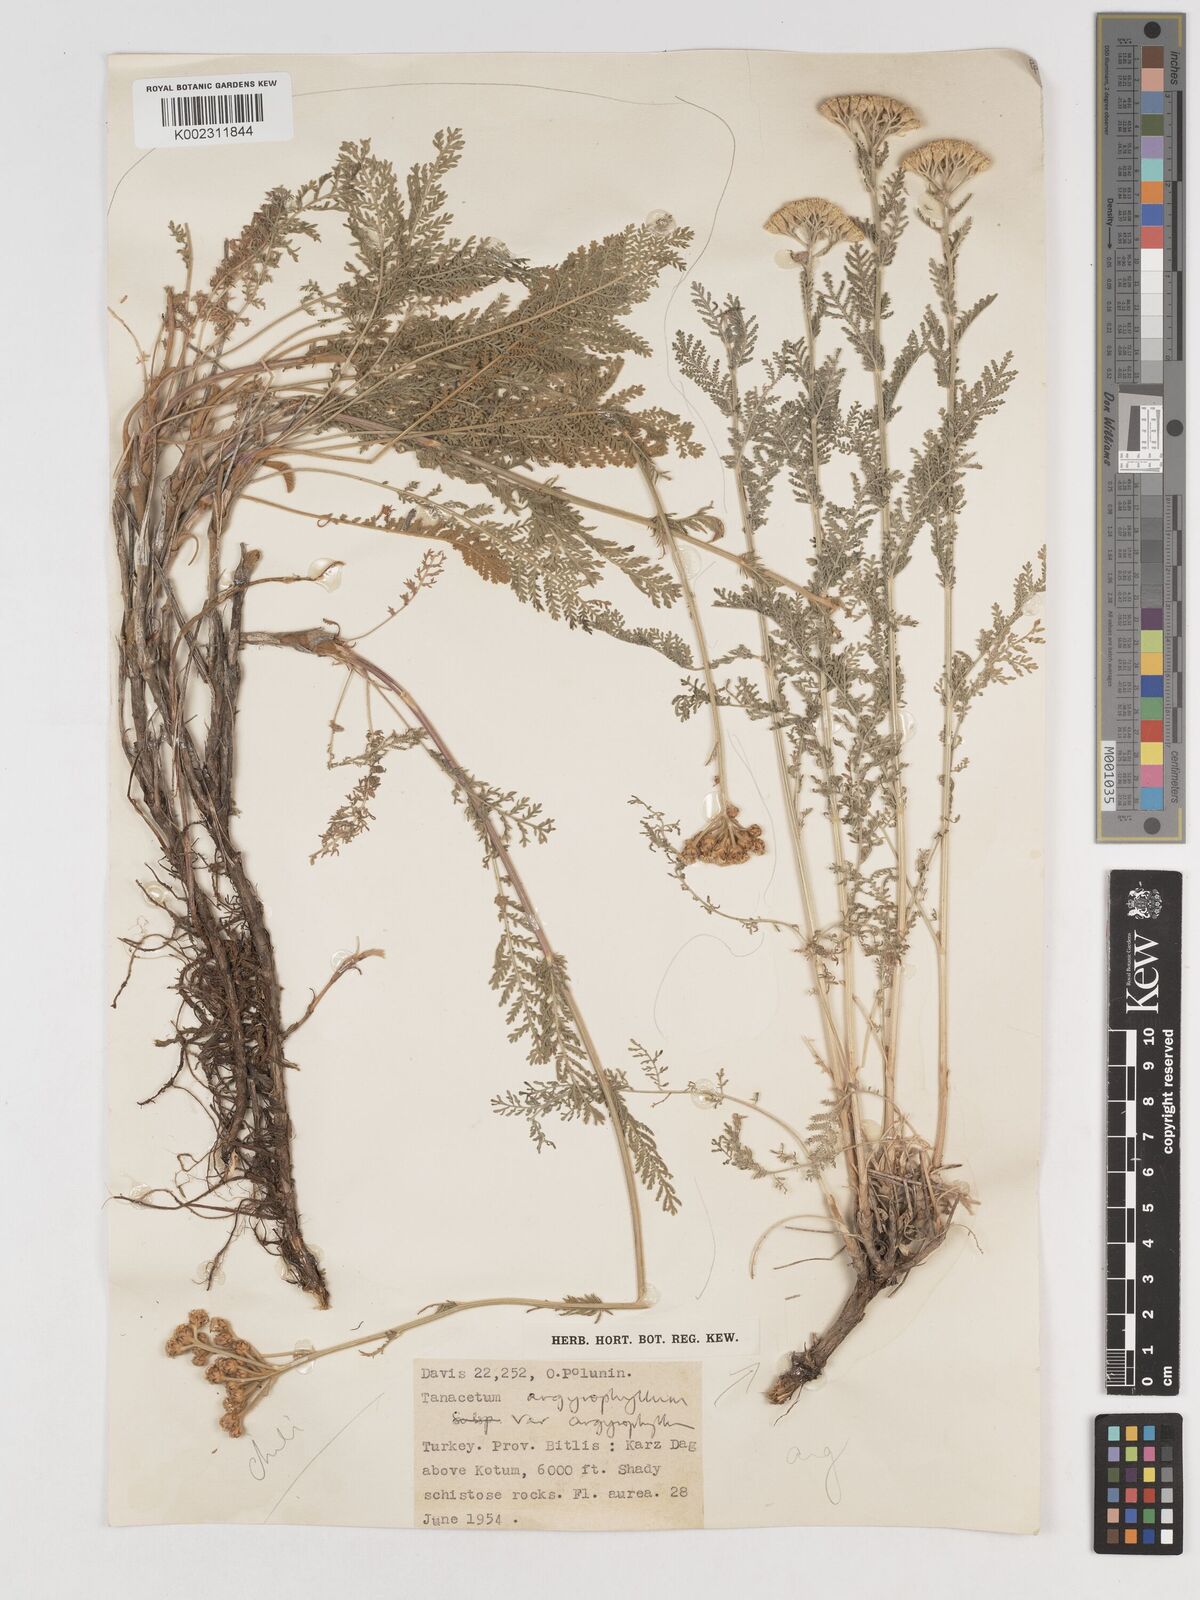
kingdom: Plantae
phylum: Tracheophyta
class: Magnoliopsida
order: Asterales
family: Asteraceae
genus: Tanacetum
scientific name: Tanacetum aureum
